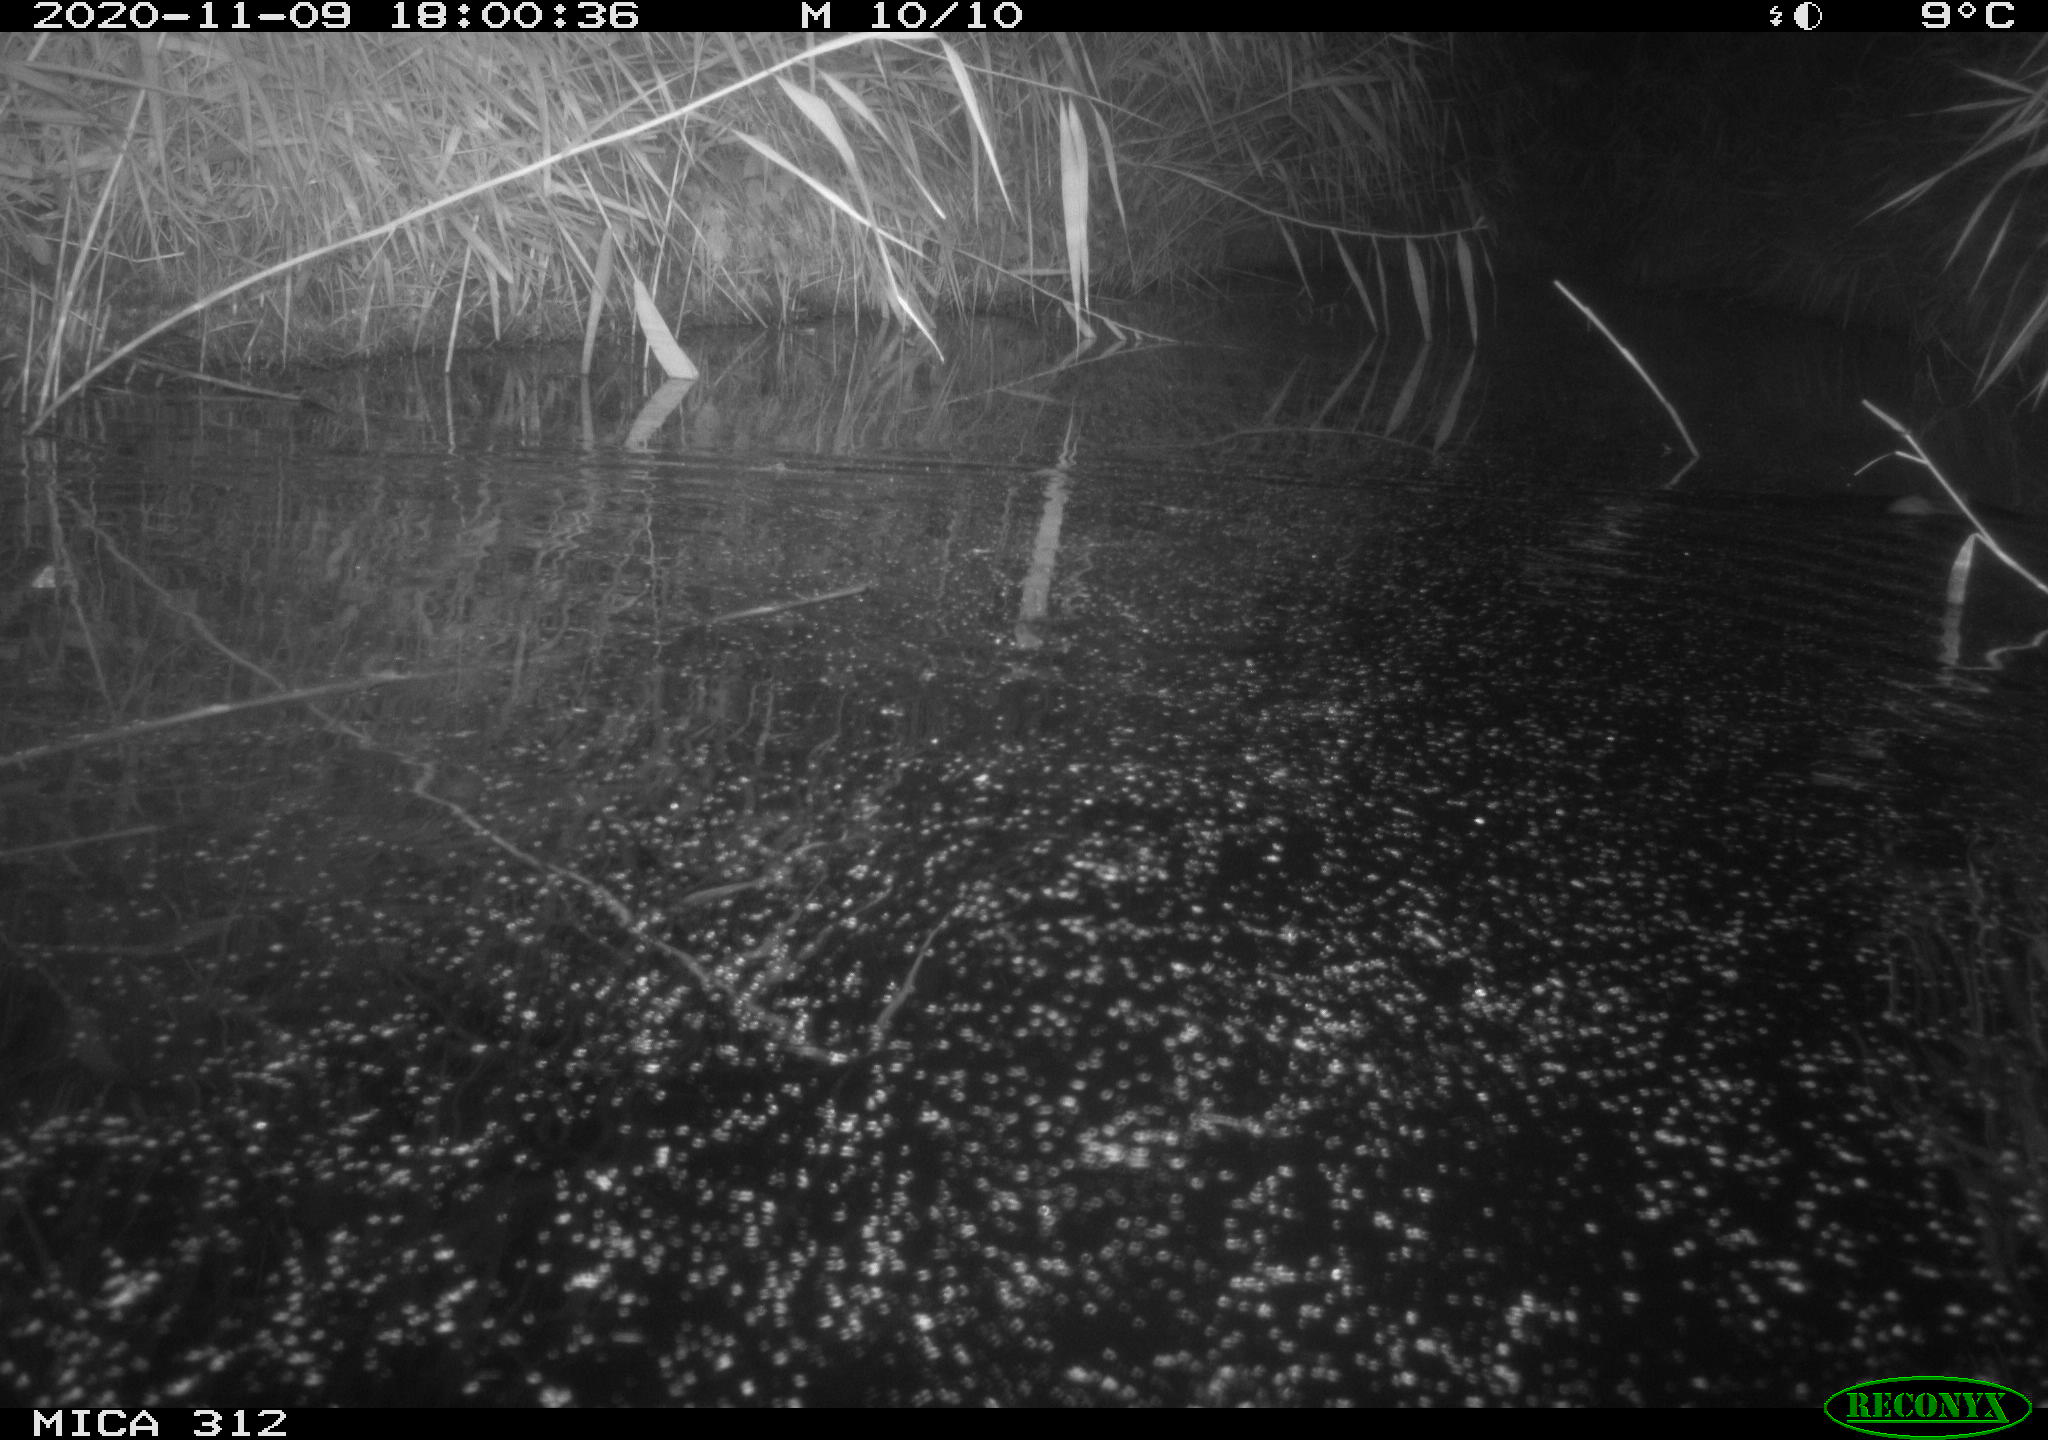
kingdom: Animalia
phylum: Chordata
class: Mammalia
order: Rodentia
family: Muridae
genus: Rattus
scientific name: Rattus norvegicus
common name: Brown rat
